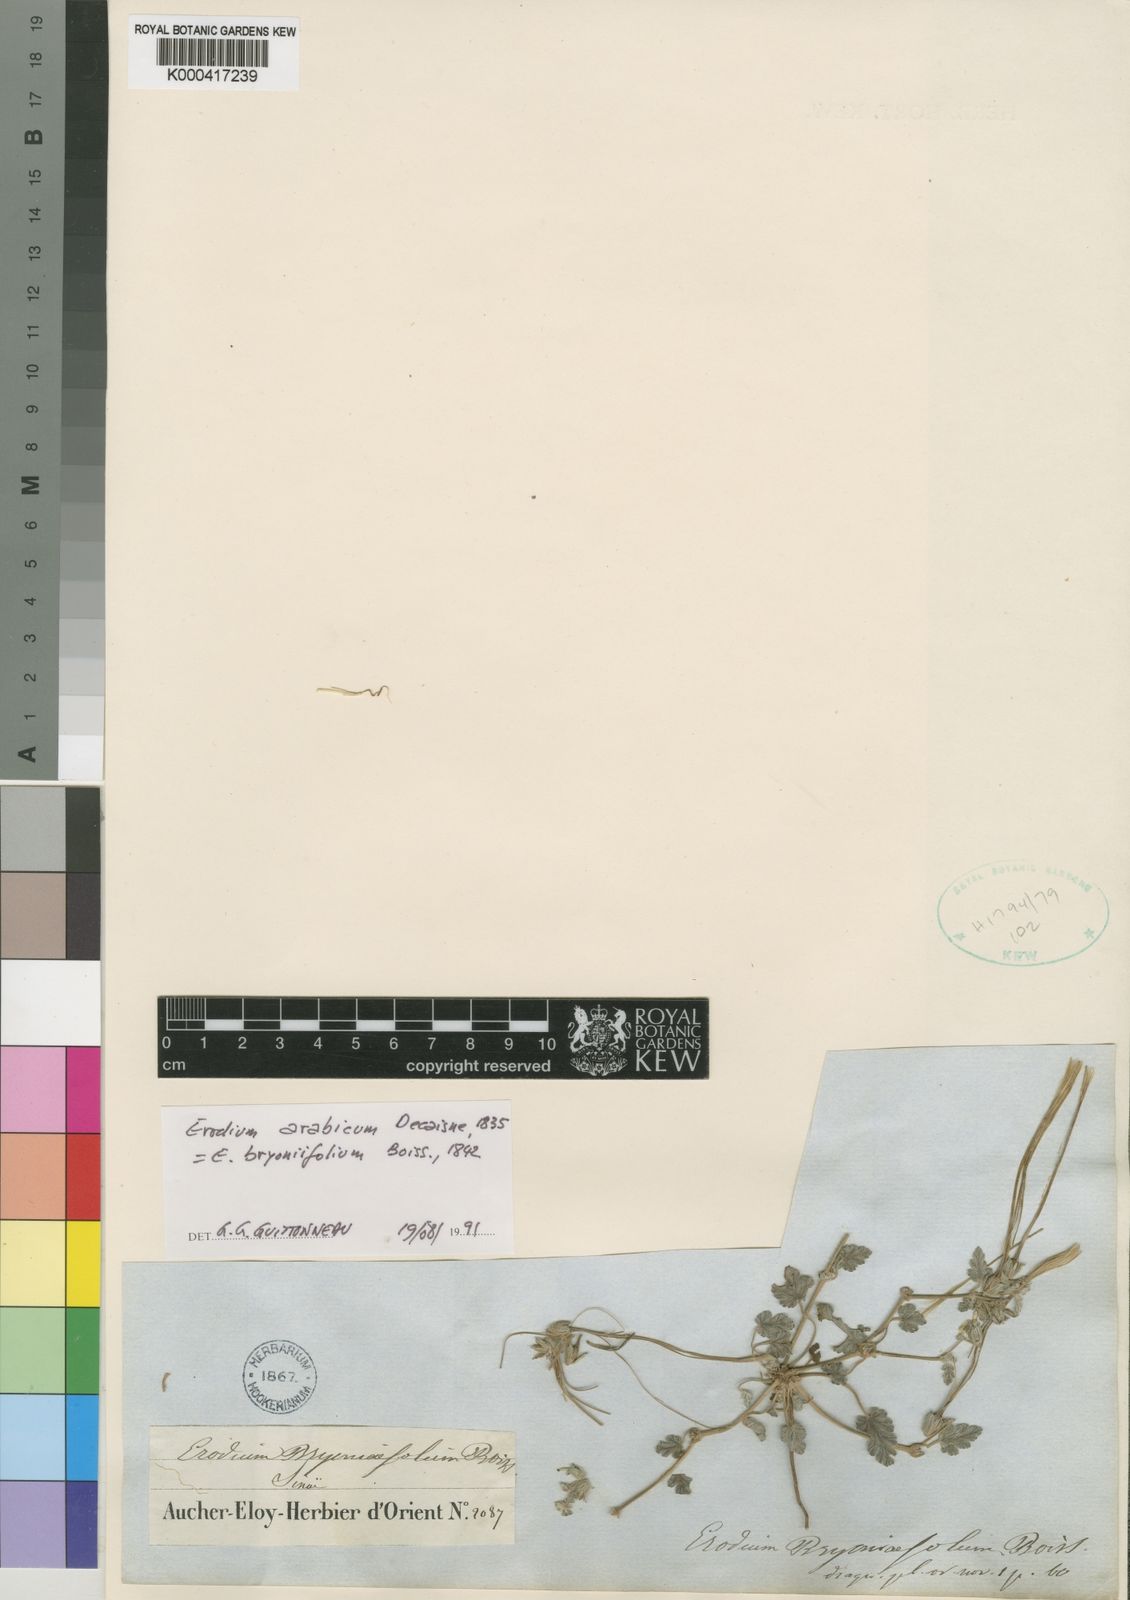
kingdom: Plantae
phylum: Tracheophyta
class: Magnoliopsida
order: Geraniales
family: Geraniaceae
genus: Erodium
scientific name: Erodium tunetanum
